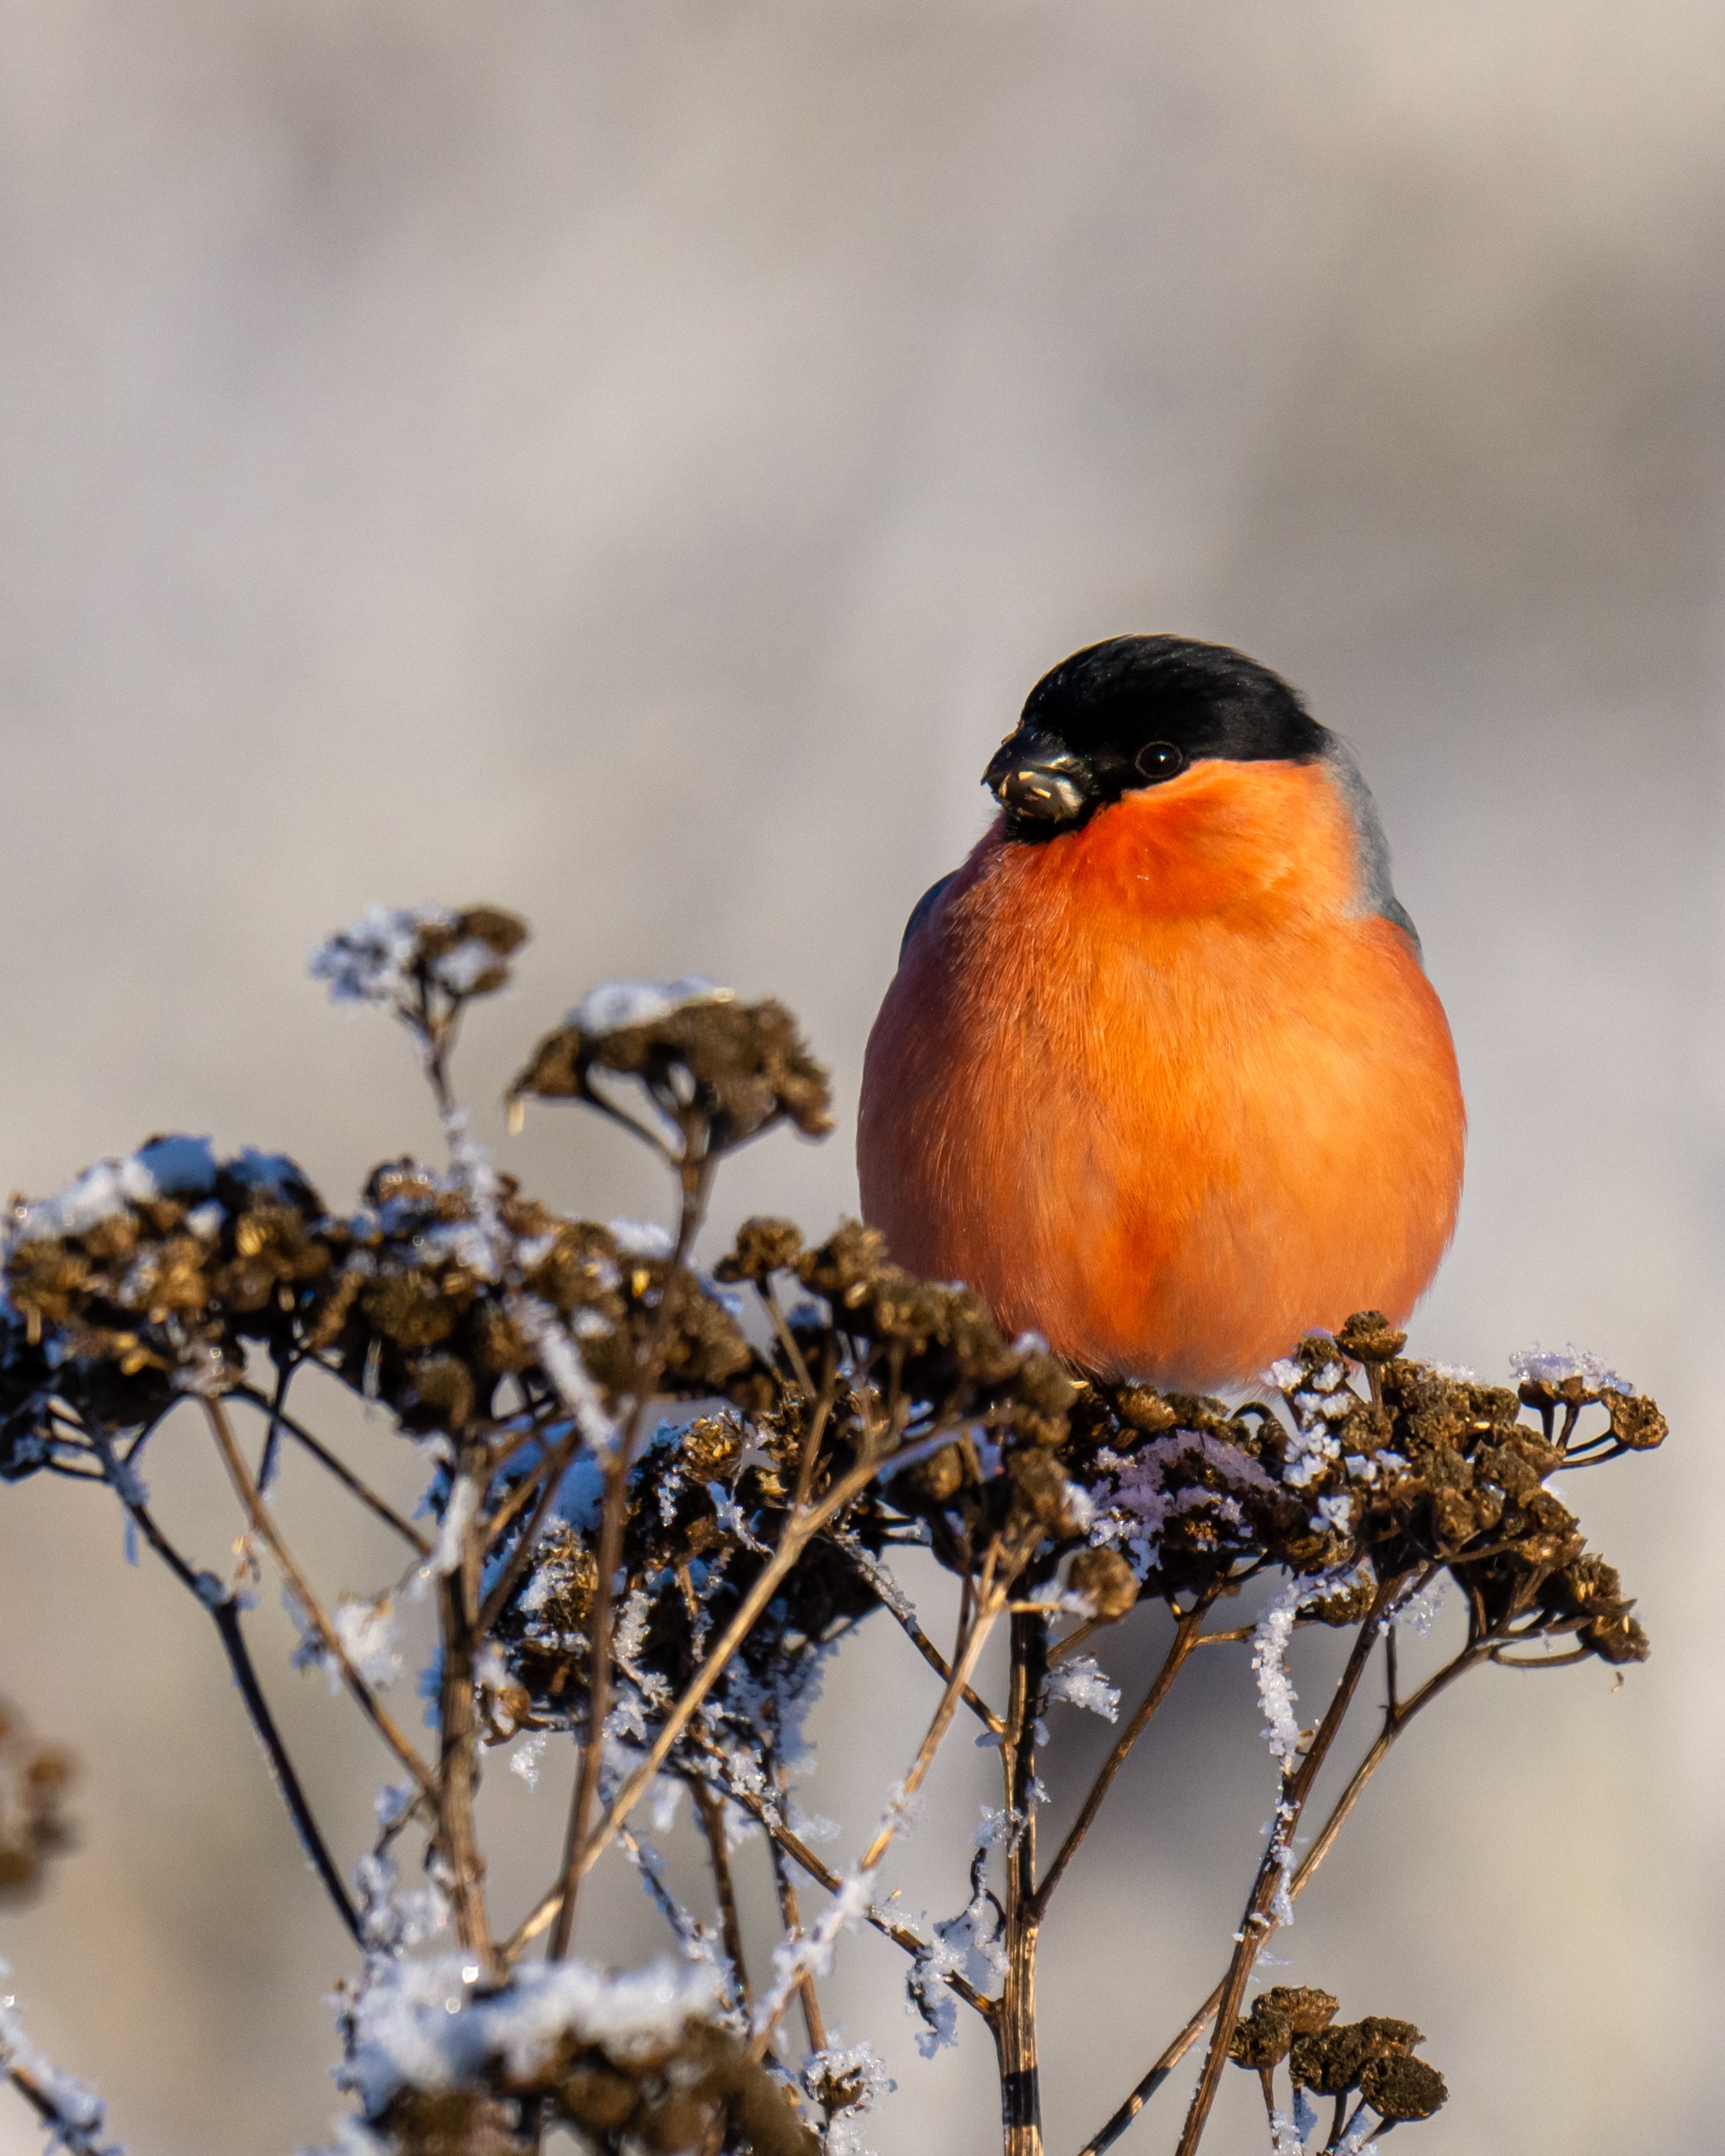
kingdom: Animalia
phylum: Chordata
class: Aves
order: Passeriformes
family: Fringillidae
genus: Pyrrhula
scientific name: Pyrrhula pyrrhula
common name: Dompap
